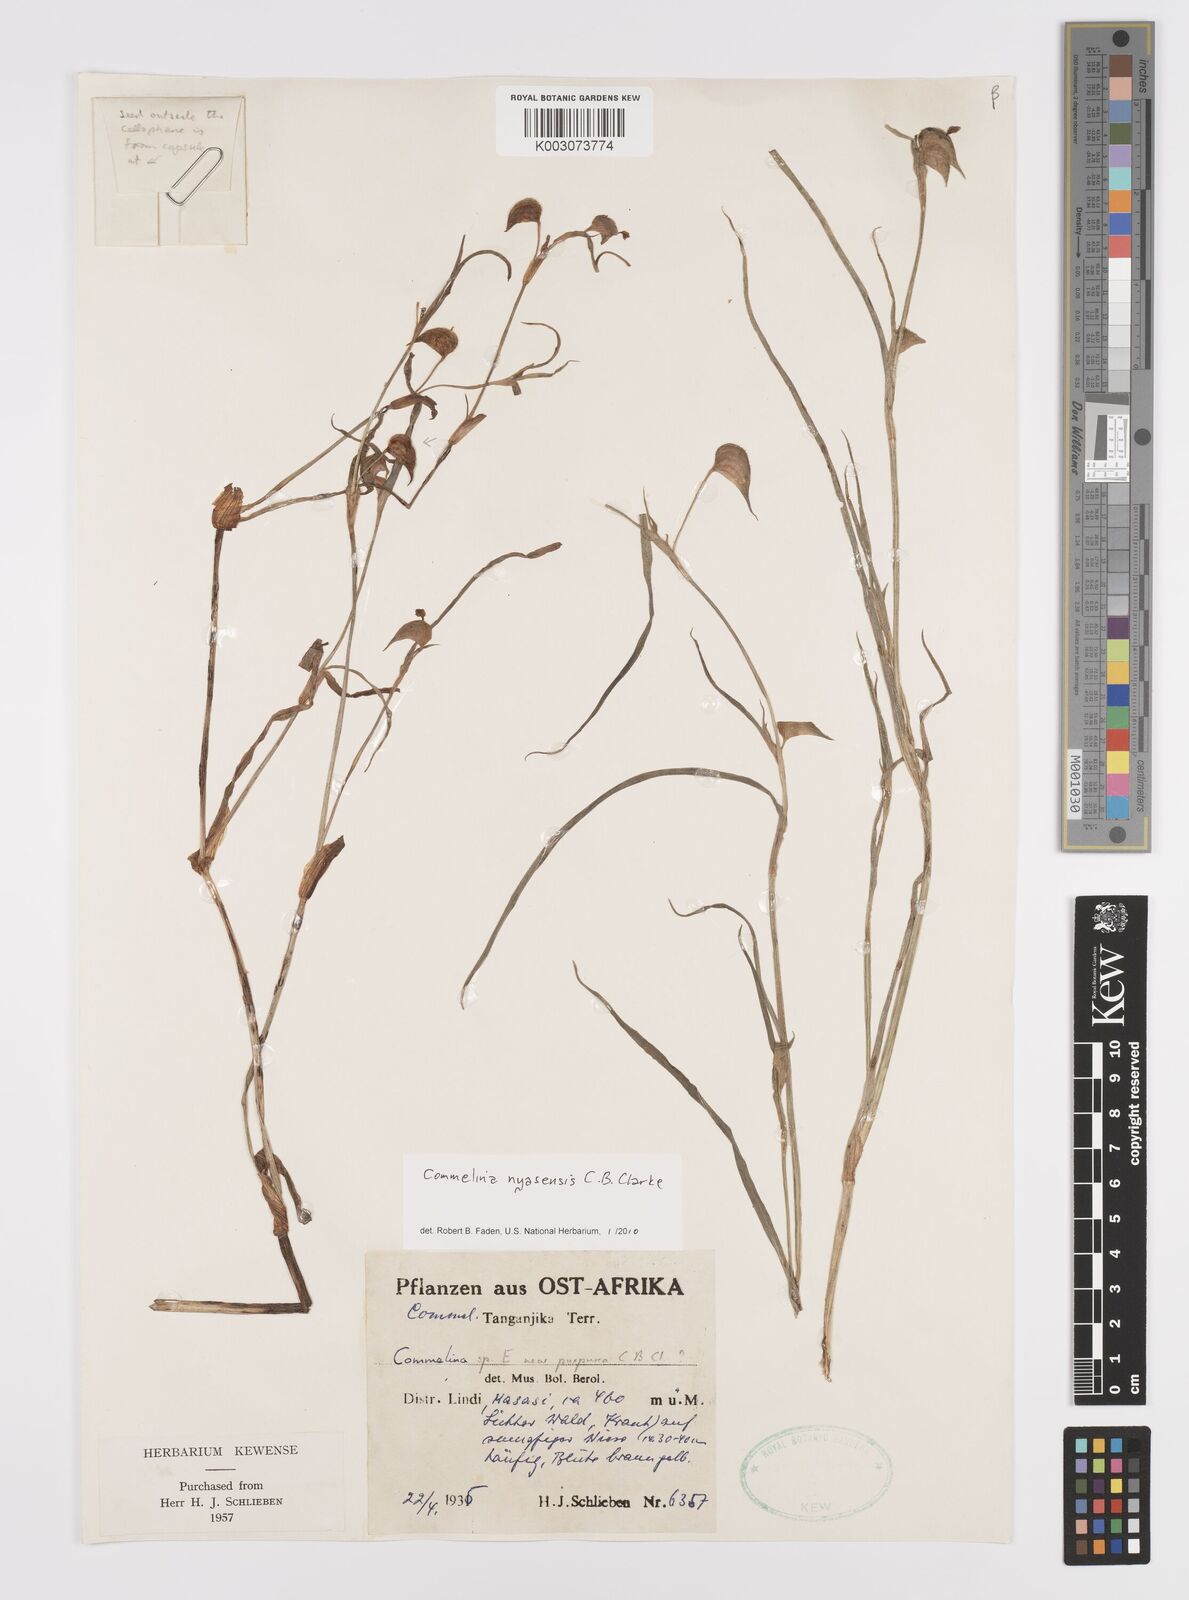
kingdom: Plantae
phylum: Tracheophyta
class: Liliopsida
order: Commelinales
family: Commelinaceae
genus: Commelina
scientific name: Commelina nyasensis
